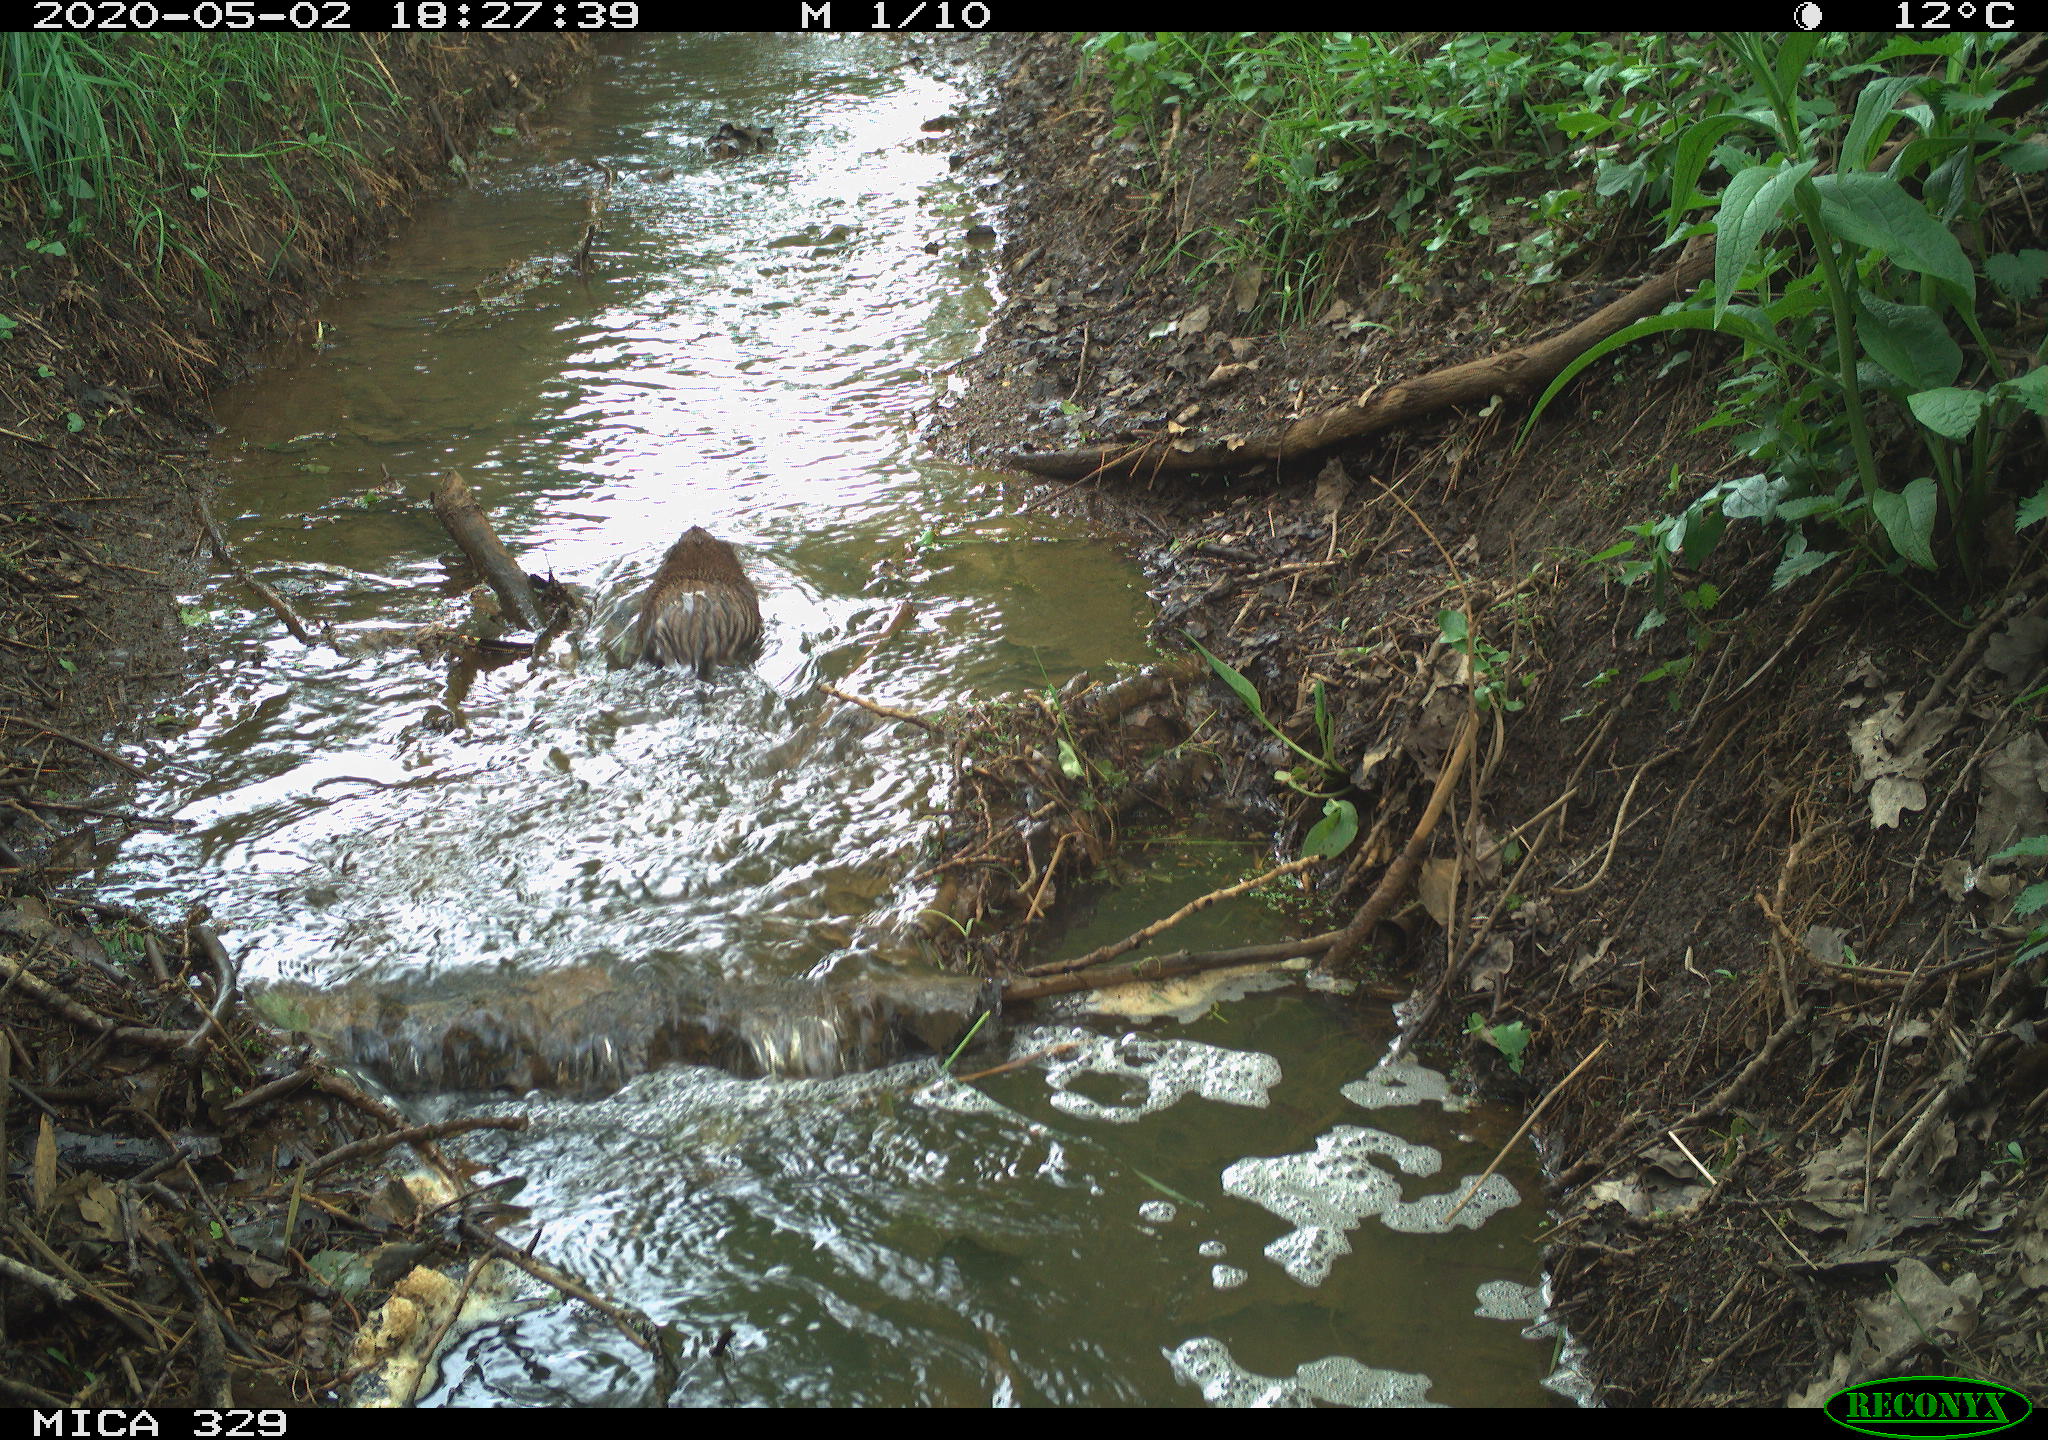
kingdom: Animalia
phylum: Chordata
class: Mammalia
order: Rodentia
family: Cricetidae
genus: Ondatra
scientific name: Ondatra zibethicus
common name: Muskrat
